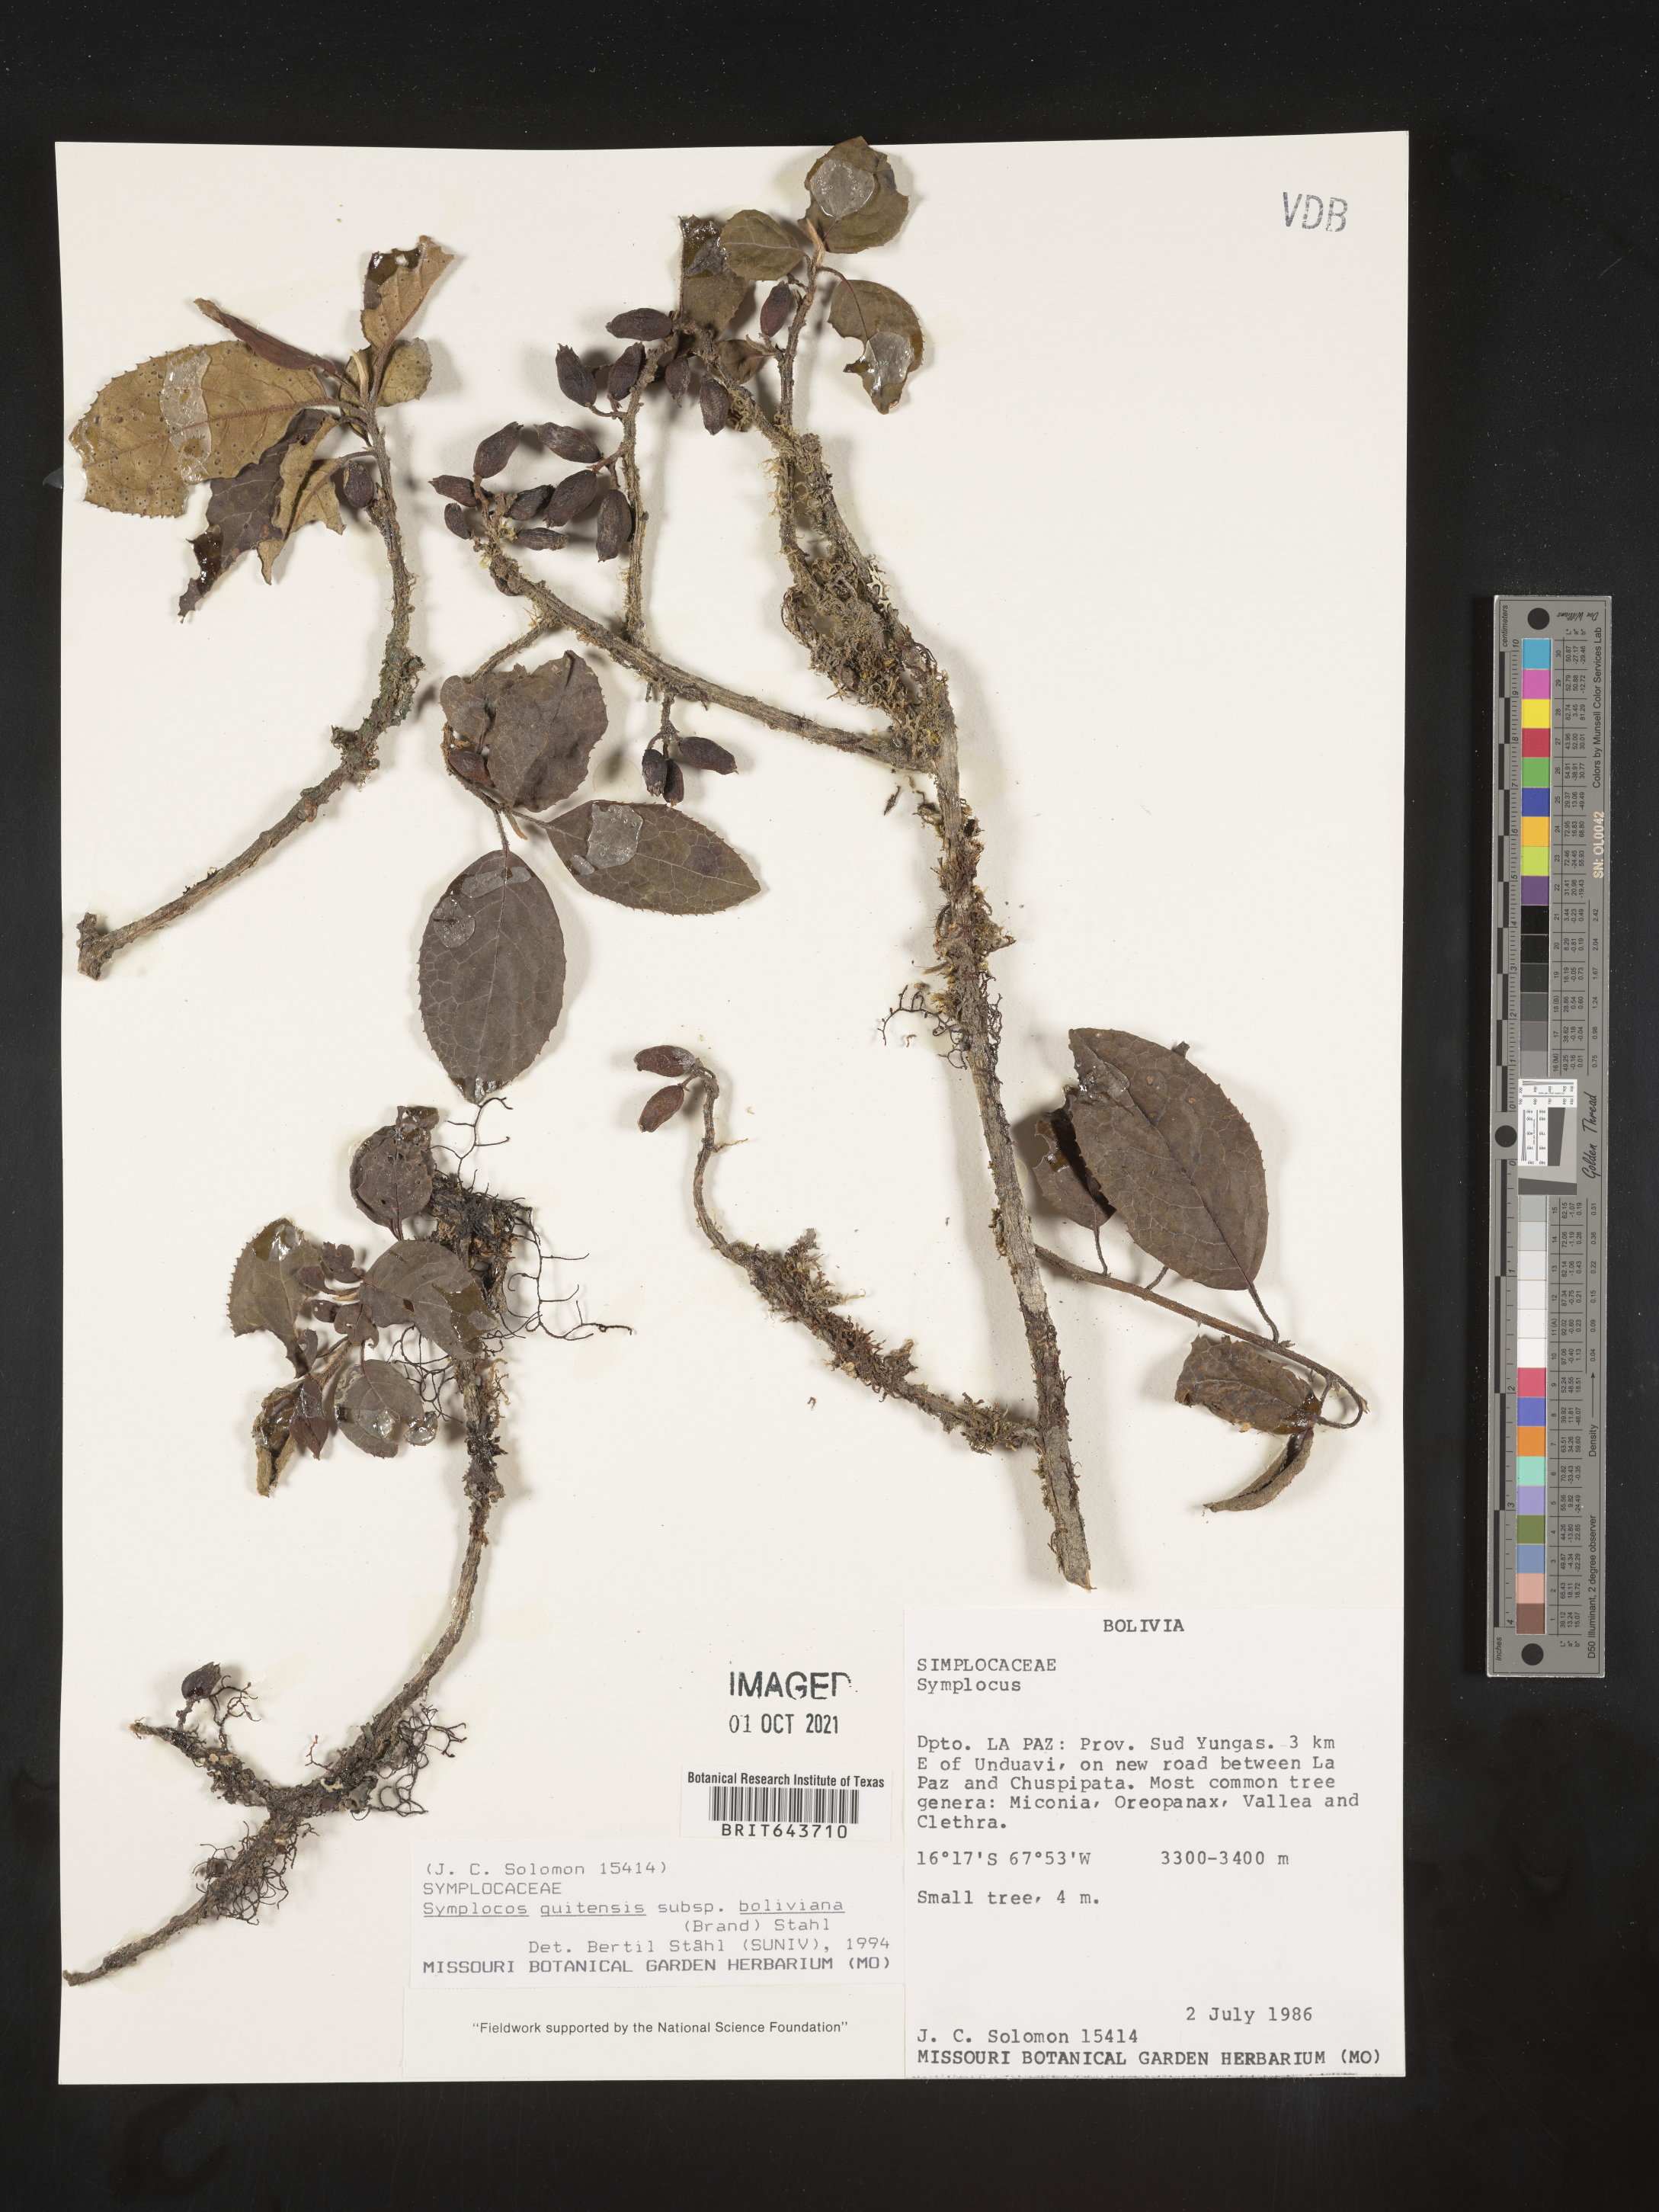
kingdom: Plantae
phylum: Tracheophyta
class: Magnoliopsida
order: Ericales
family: Symplocaceae
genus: Symplocos
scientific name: Symplocos
